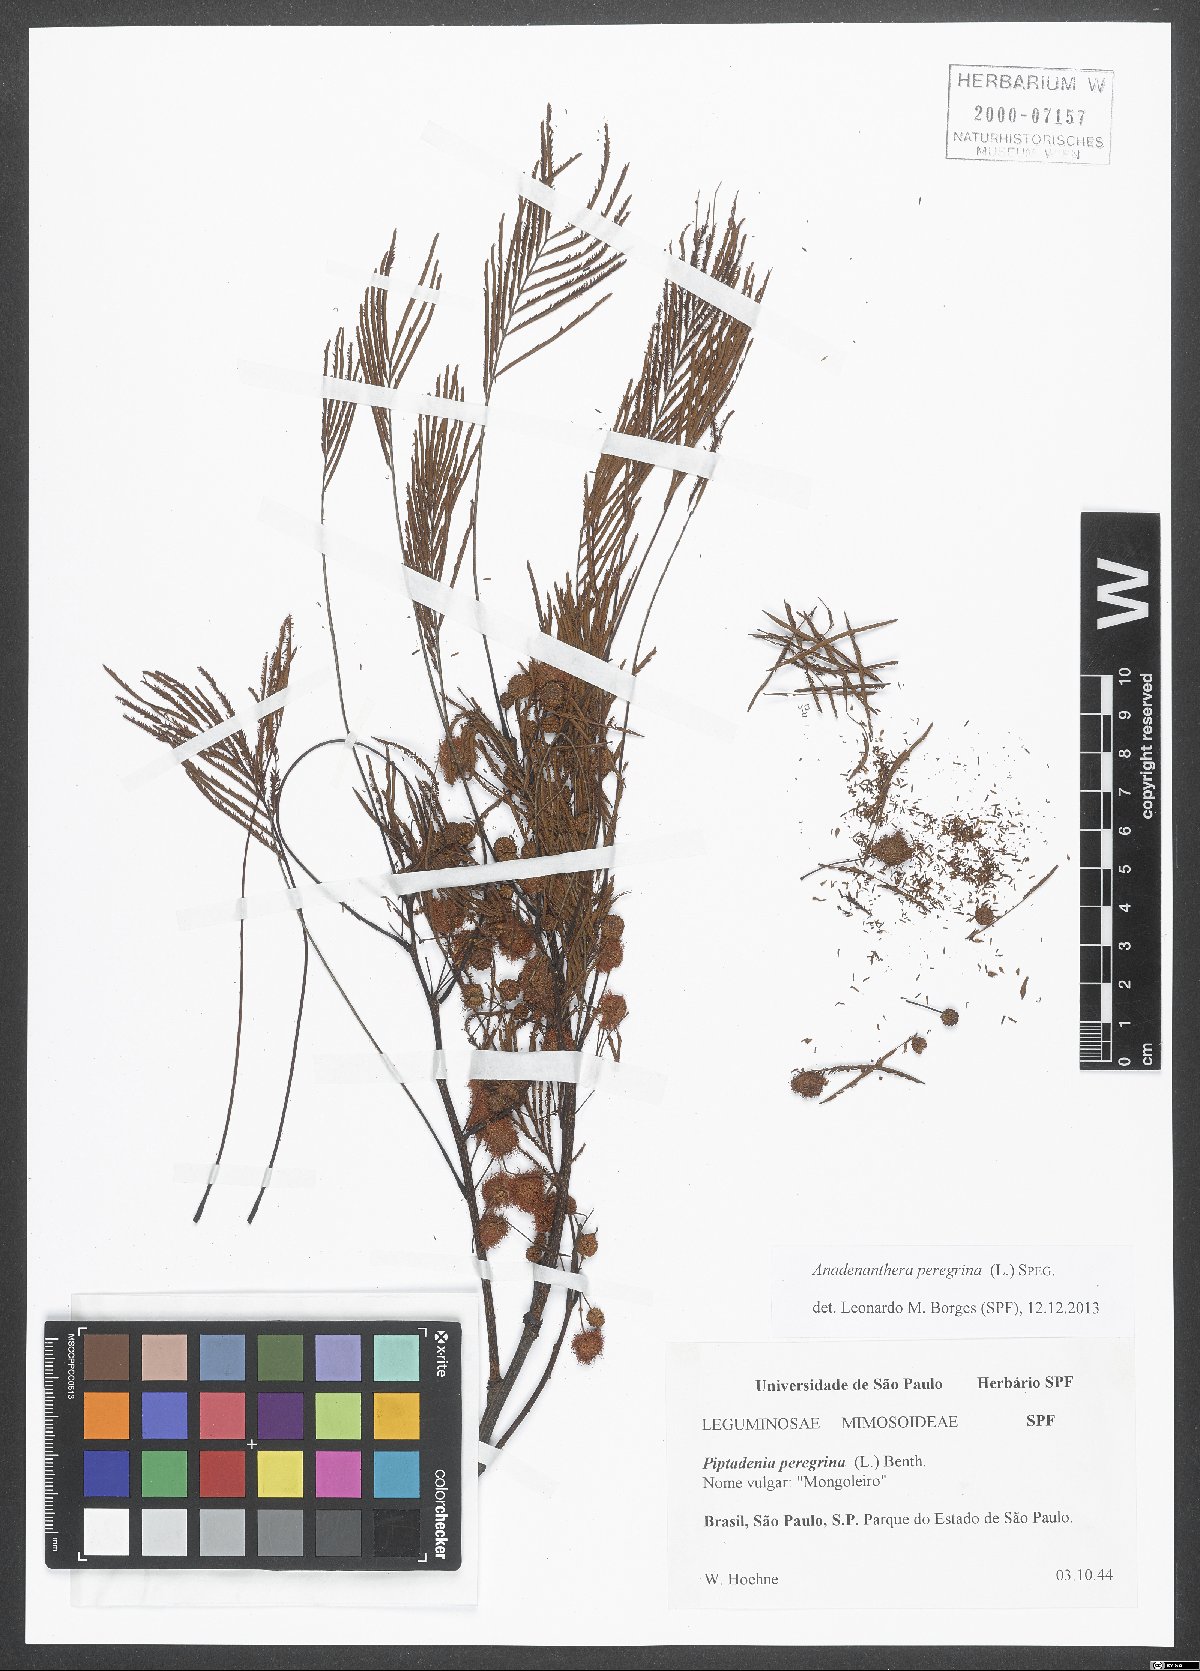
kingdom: Plantae
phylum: Tracheophyta
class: Magnoliopsida
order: Fabales
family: Fabaceae
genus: Anadenanthera
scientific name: Anadenanthera peregrina
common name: Cohoba
